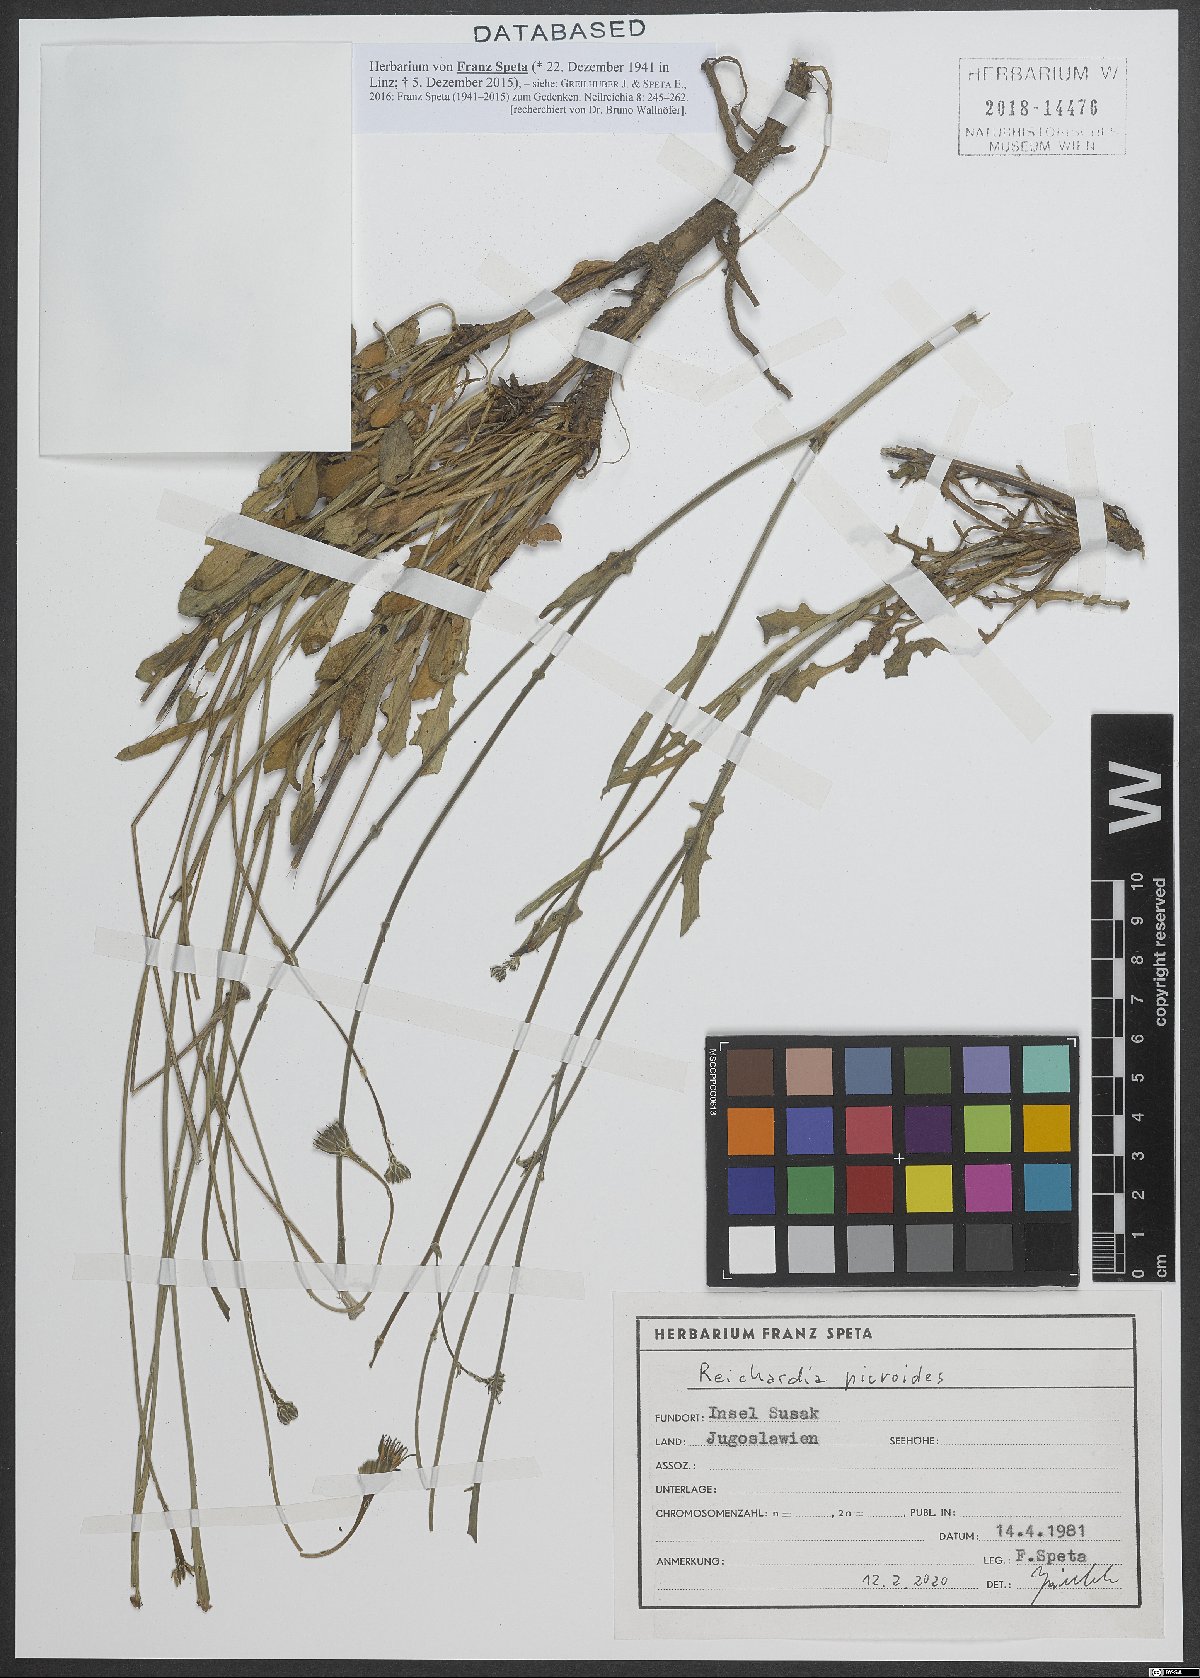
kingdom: Plantae
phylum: Tracheophyta
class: Magnoliopsida
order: Asterales
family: Asteraceae
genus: Reichardia
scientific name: Reichardia picroides
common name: Common brighteyes
